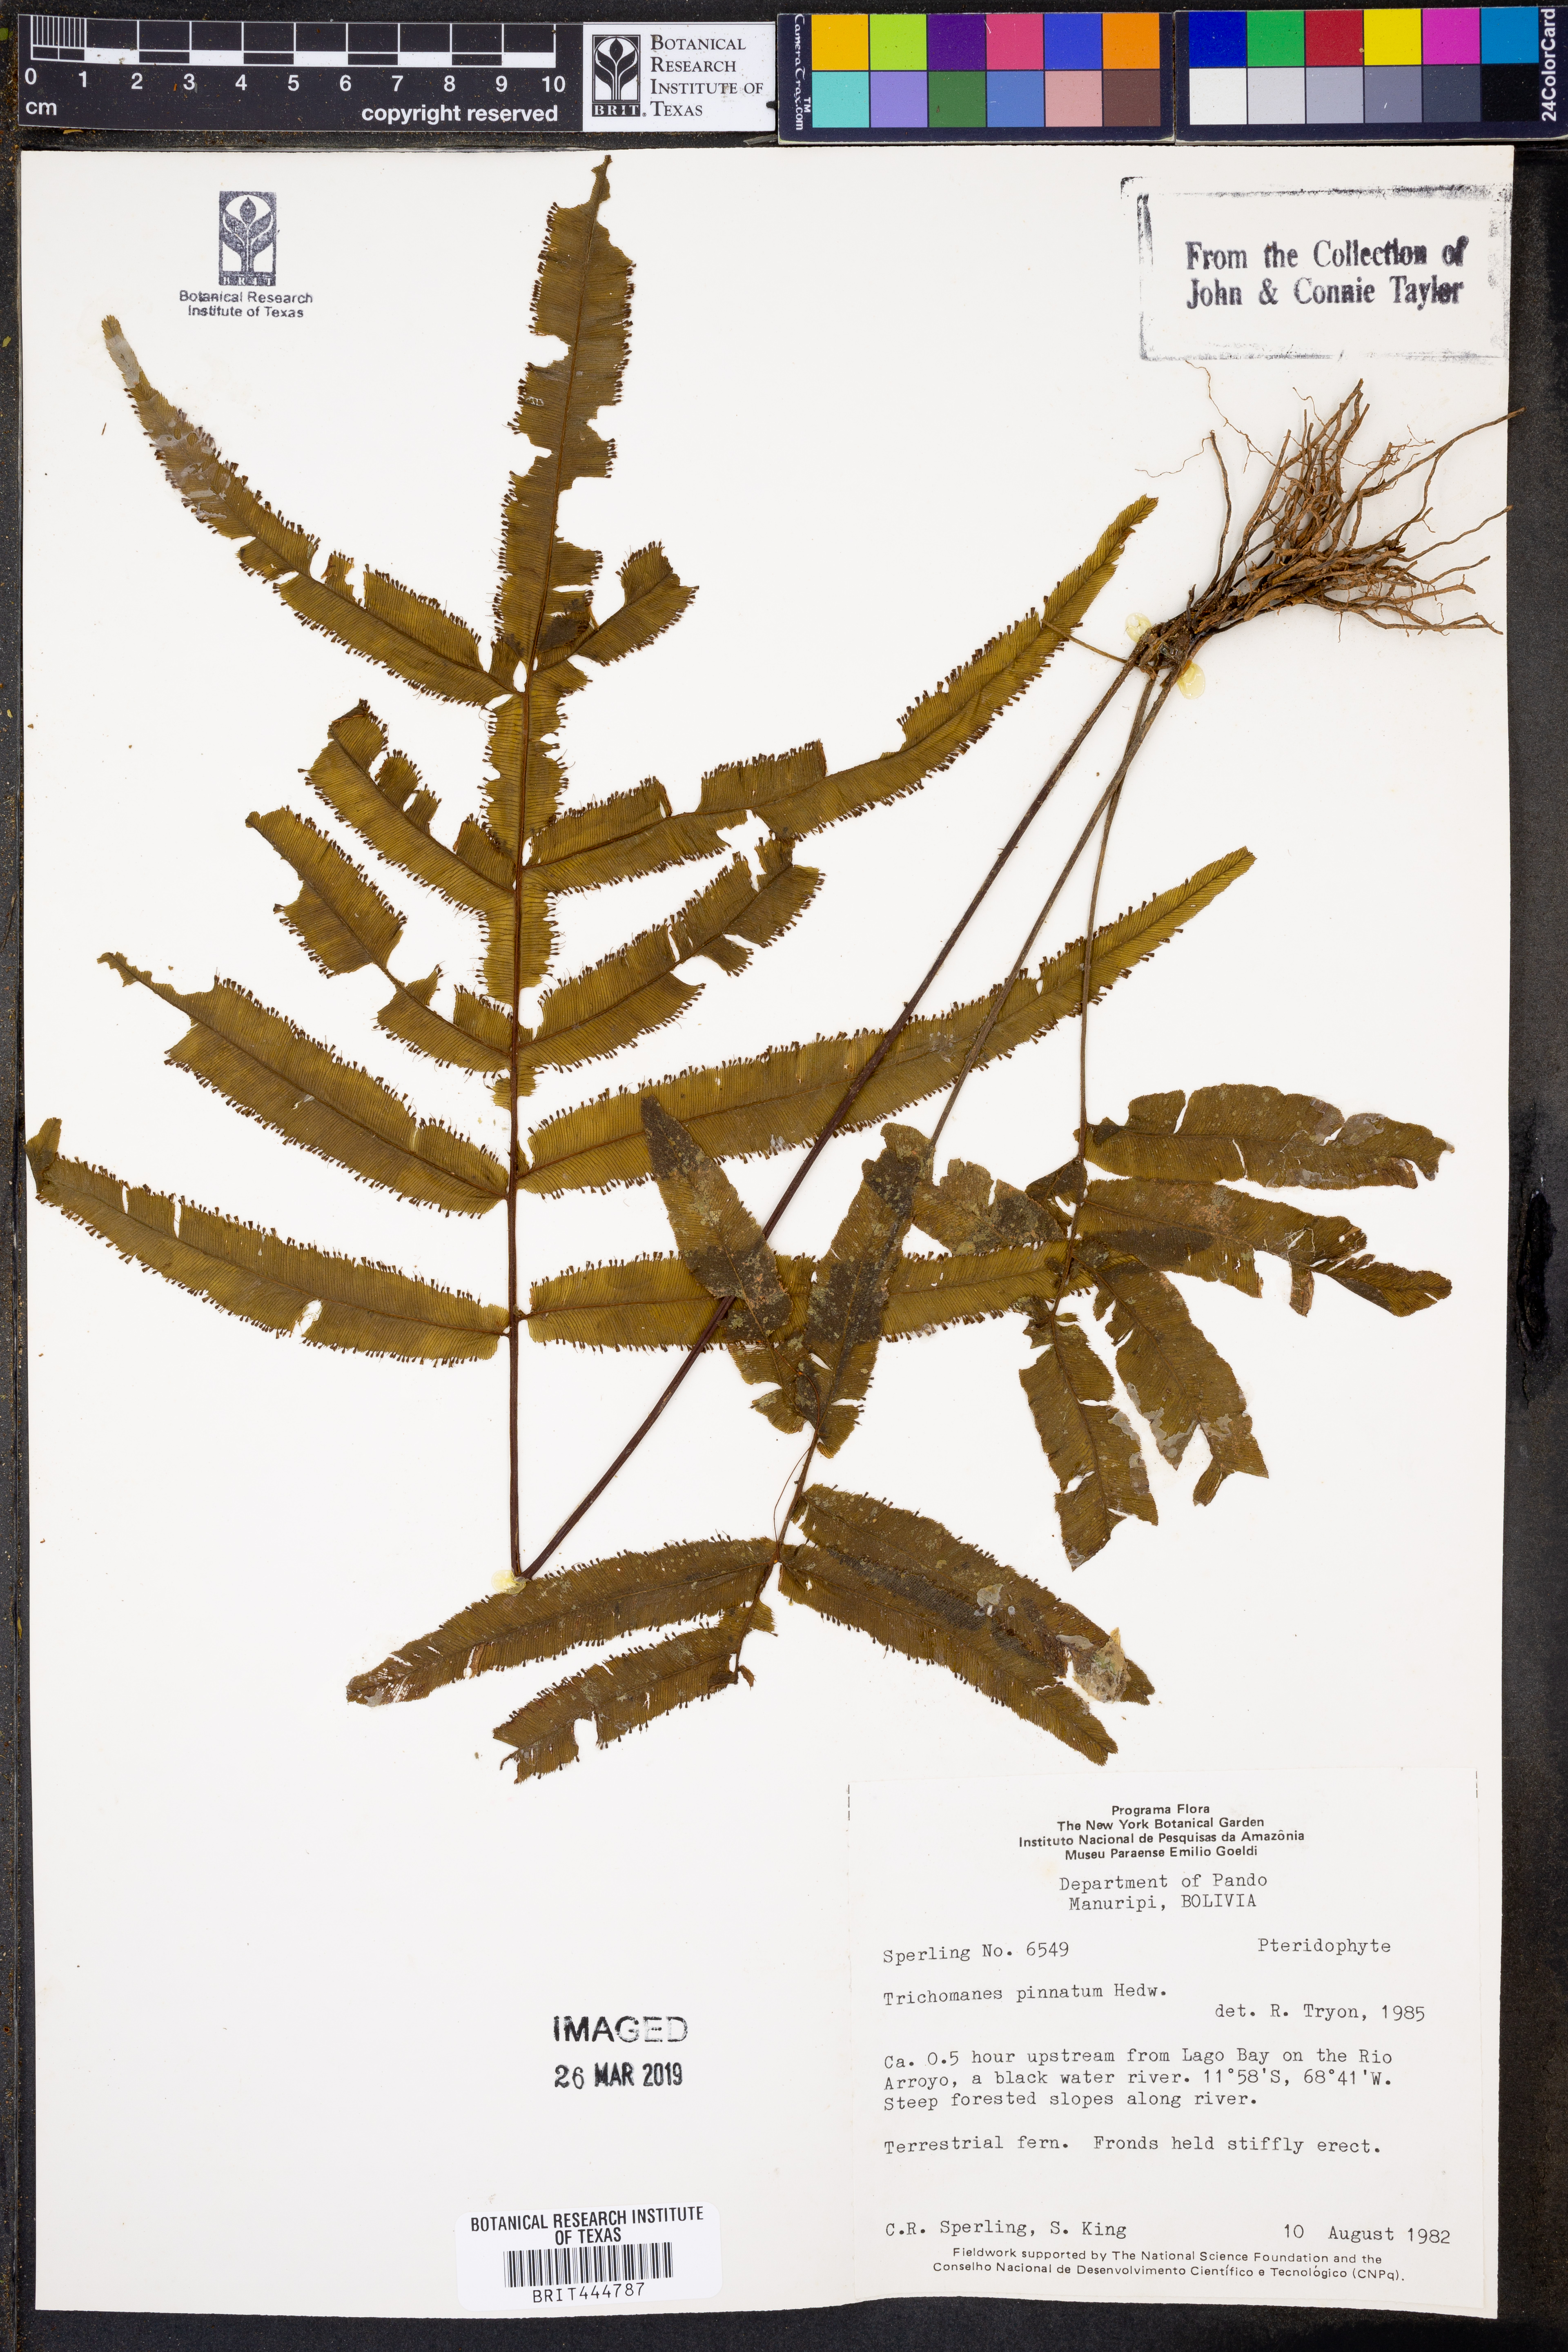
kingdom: Plantae
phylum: Tracheophyta
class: Polypodiopsida
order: Hymenophyllales
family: Hymenophyllaceae
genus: Trichomanes
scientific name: Trichomanes pinnatum
